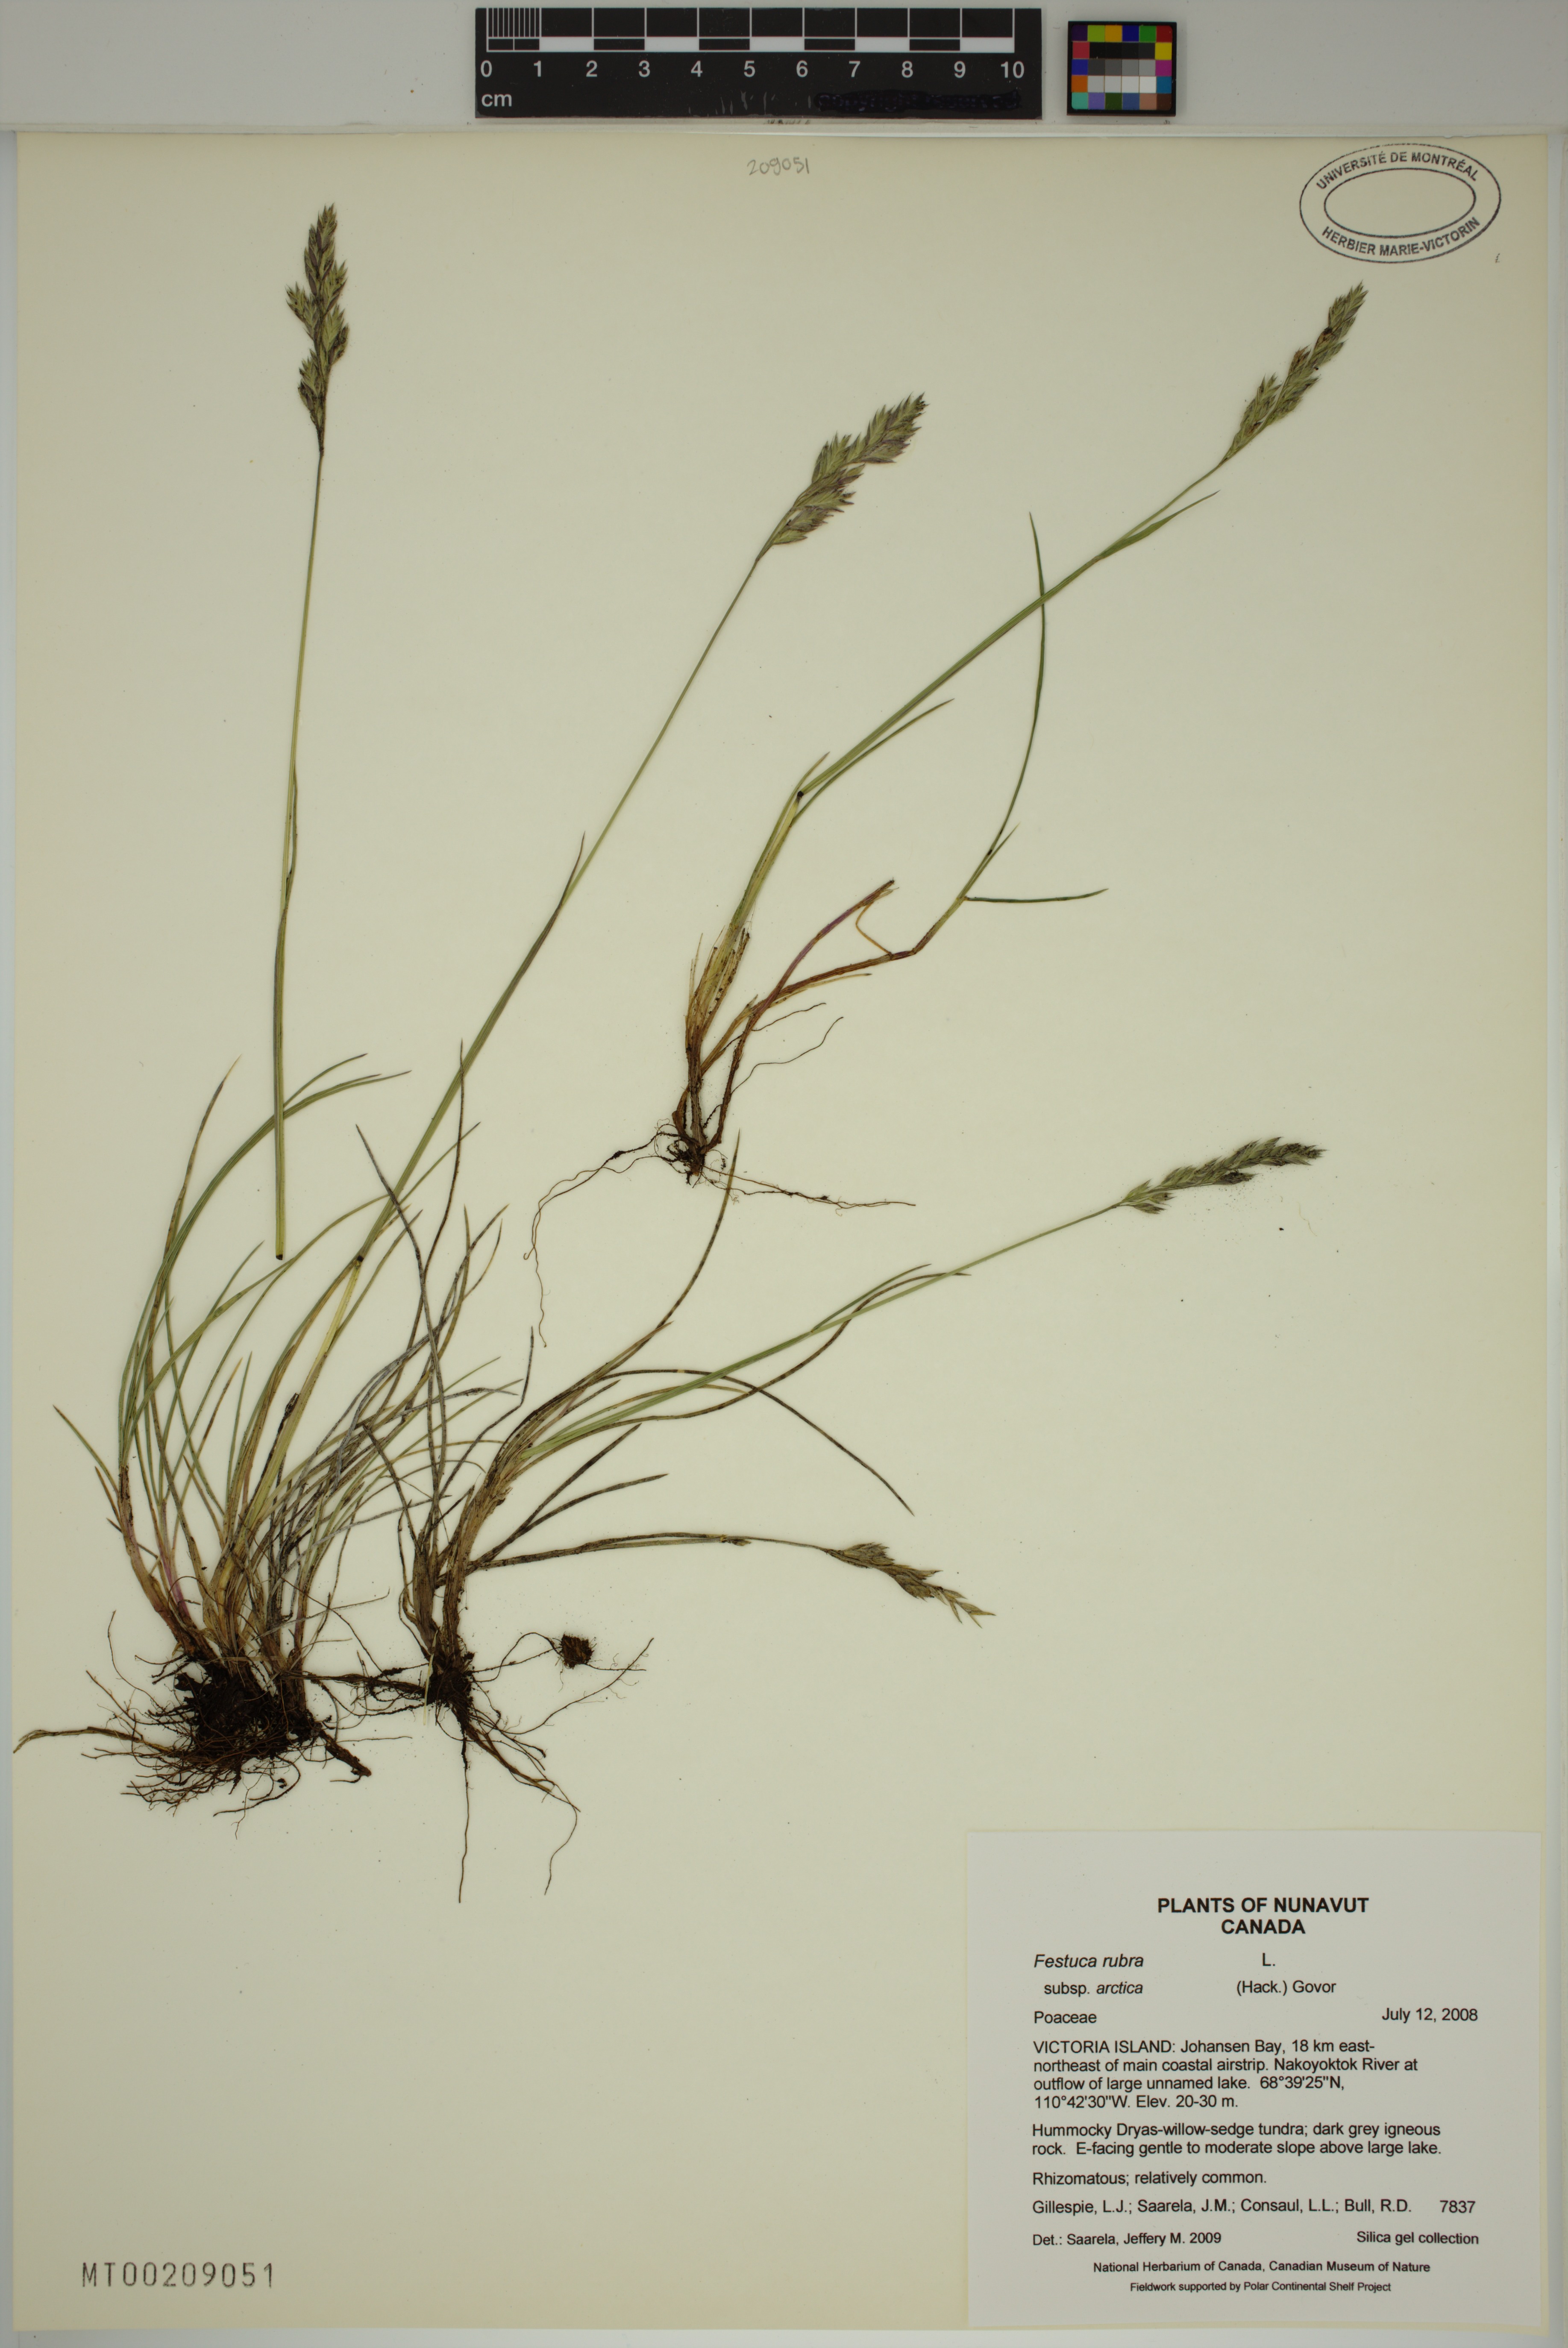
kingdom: Plantae
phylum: Tracheophyta
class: Liliopsida
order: Poales
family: Poaceae
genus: Festuca
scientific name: Festuca richardsonii
